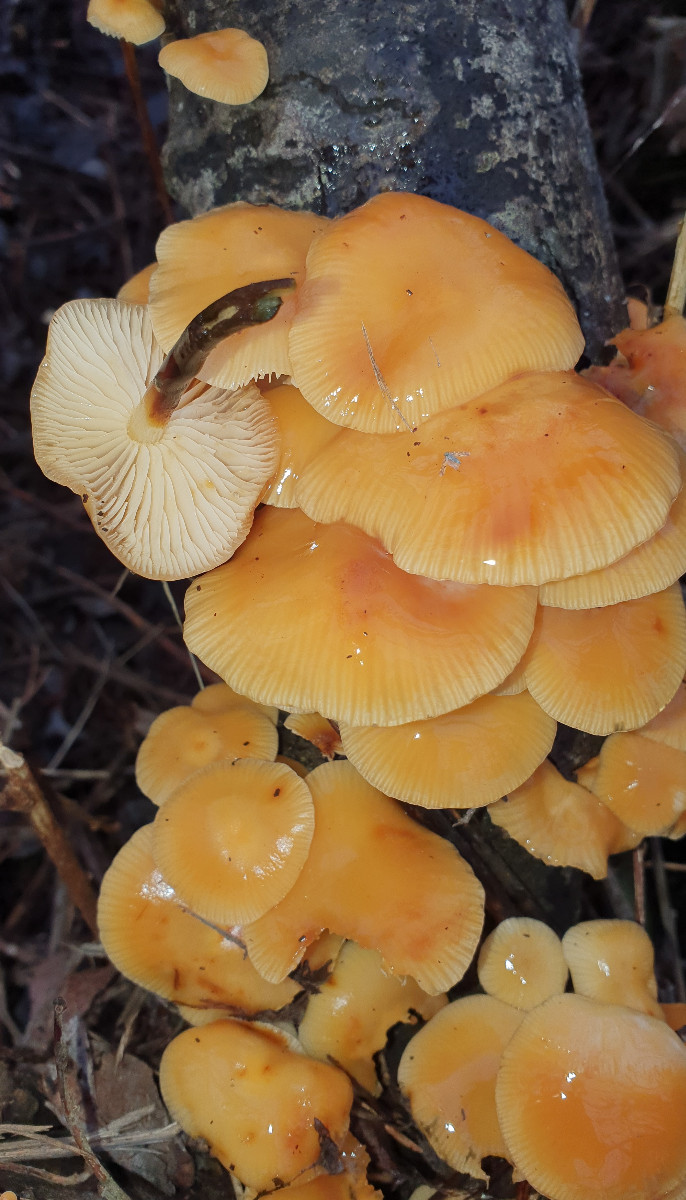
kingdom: Fungi
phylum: Basidiomycota
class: Agaricomycetes
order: Agaricales
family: Physalacriaceae
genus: Flammulina
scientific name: Flammulina
